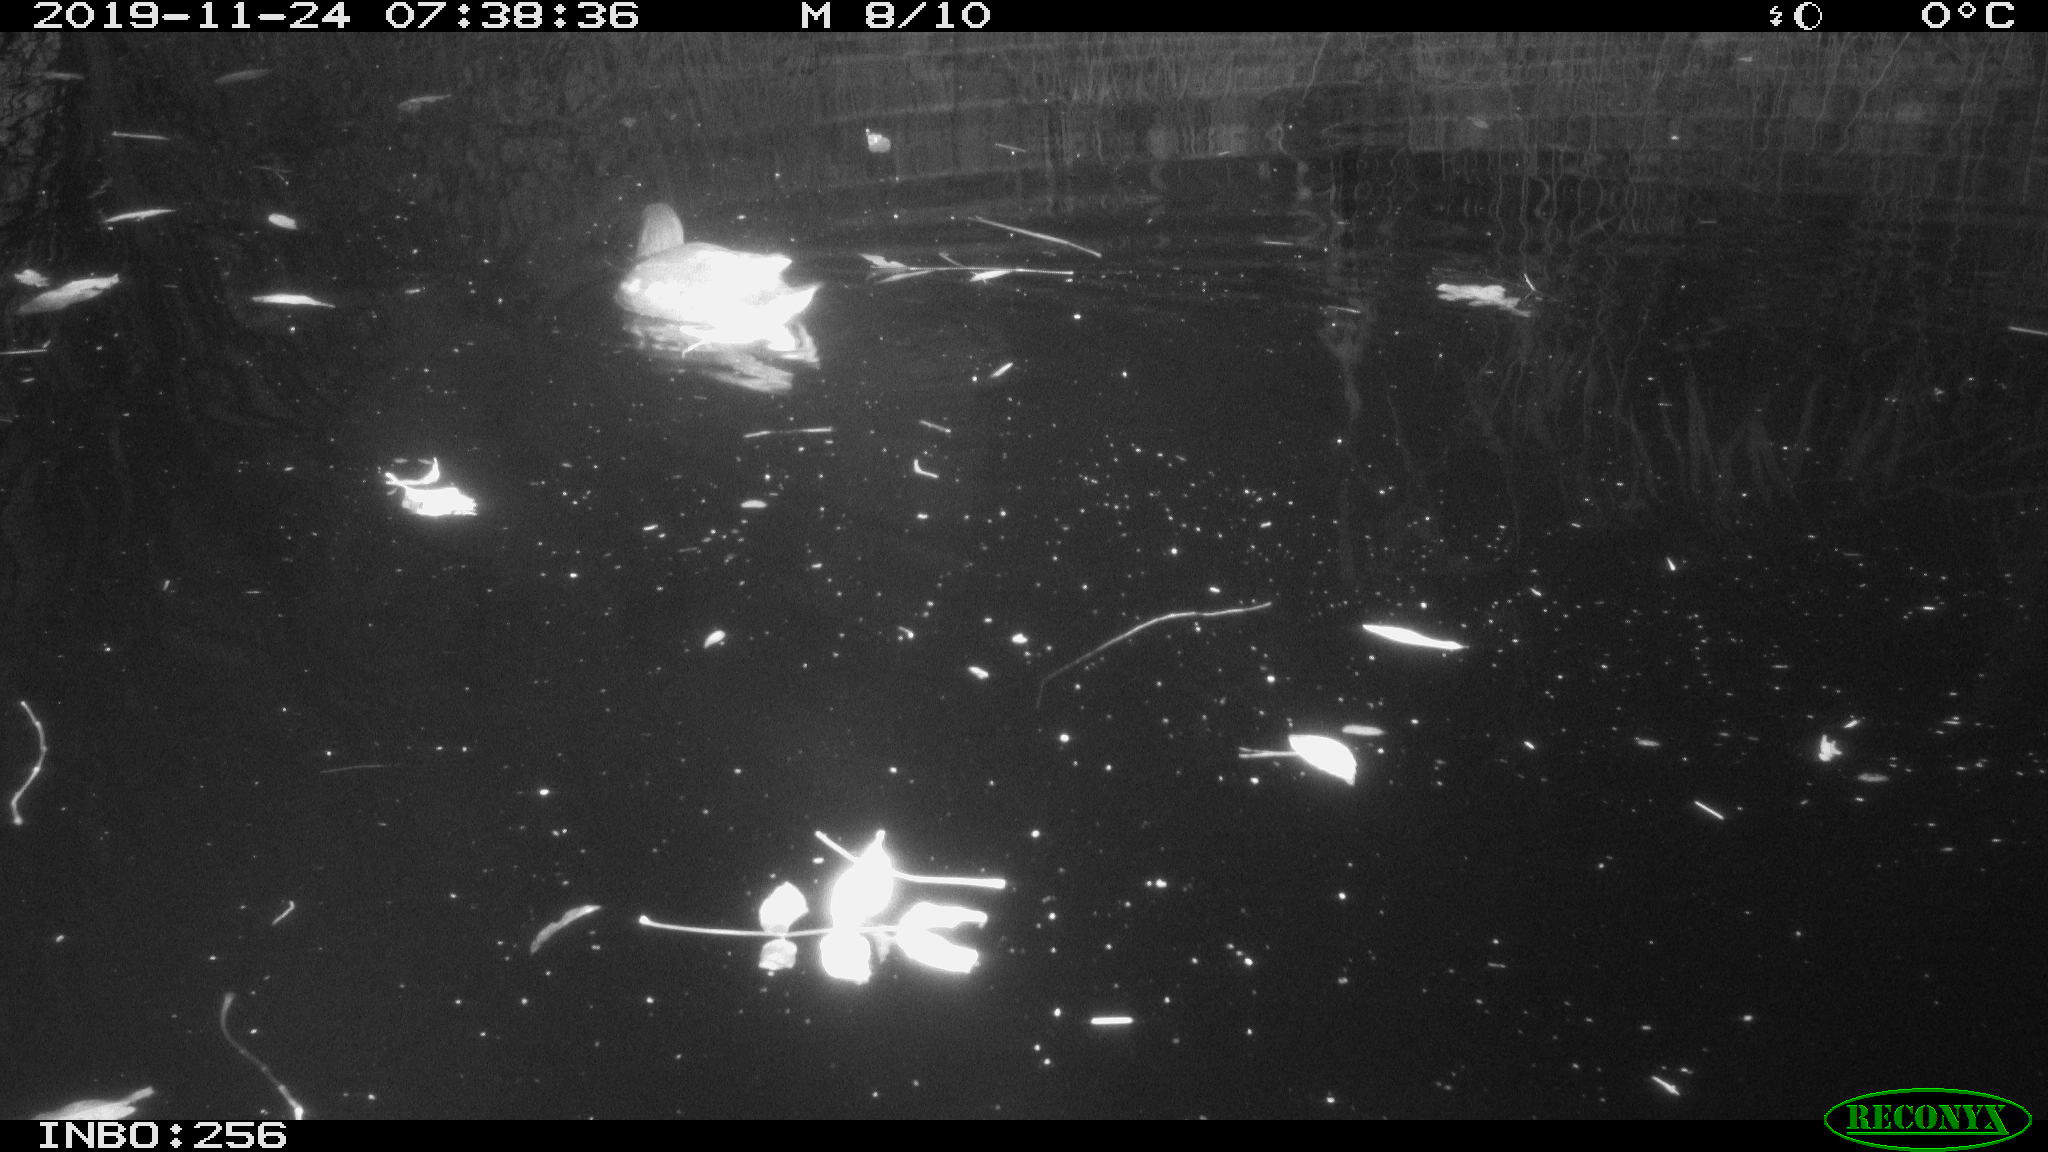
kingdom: Animalia
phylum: Chordata
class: Aves
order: Gruiformes
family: Rallidae
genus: Gallinula
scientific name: Gallinula chloropus
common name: Common moorhen
